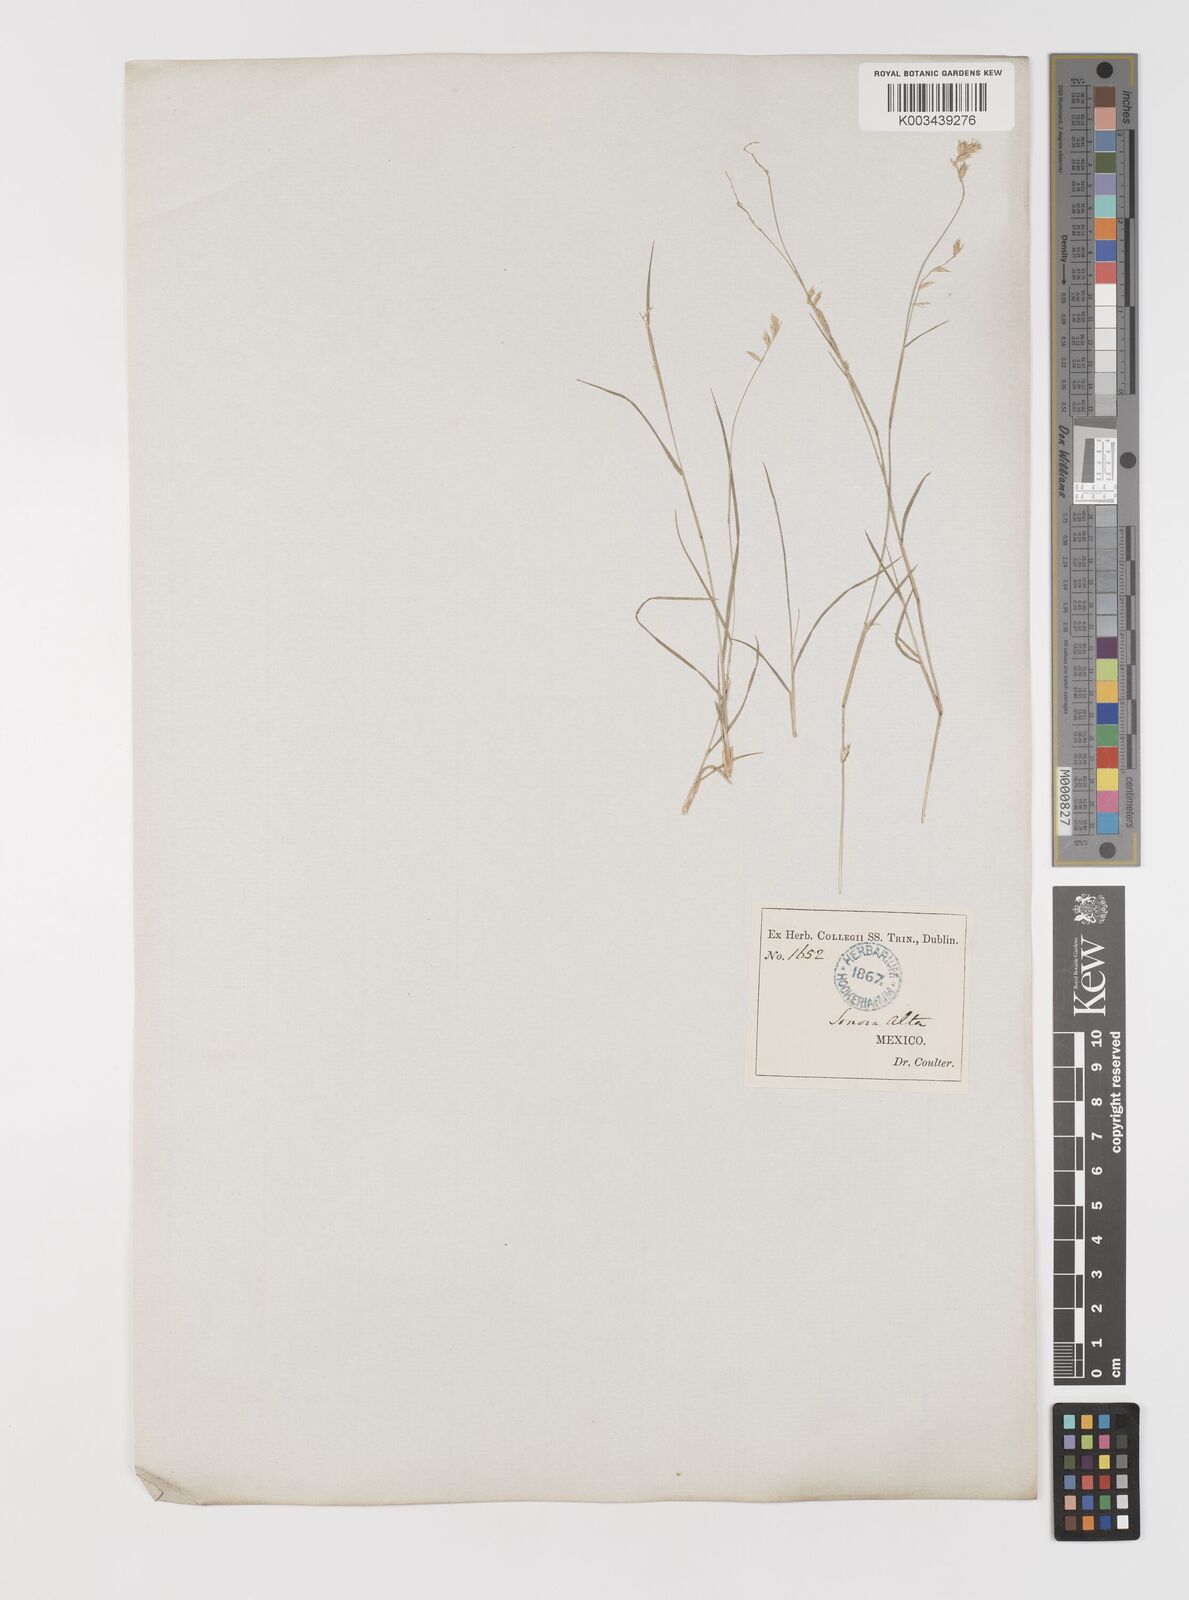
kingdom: Plantae
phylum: Tracheophyta
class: Liliopsida
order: Poales
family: Poaceae
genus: Bouteloua
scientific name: Bouteloua repens
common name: Slender grama
